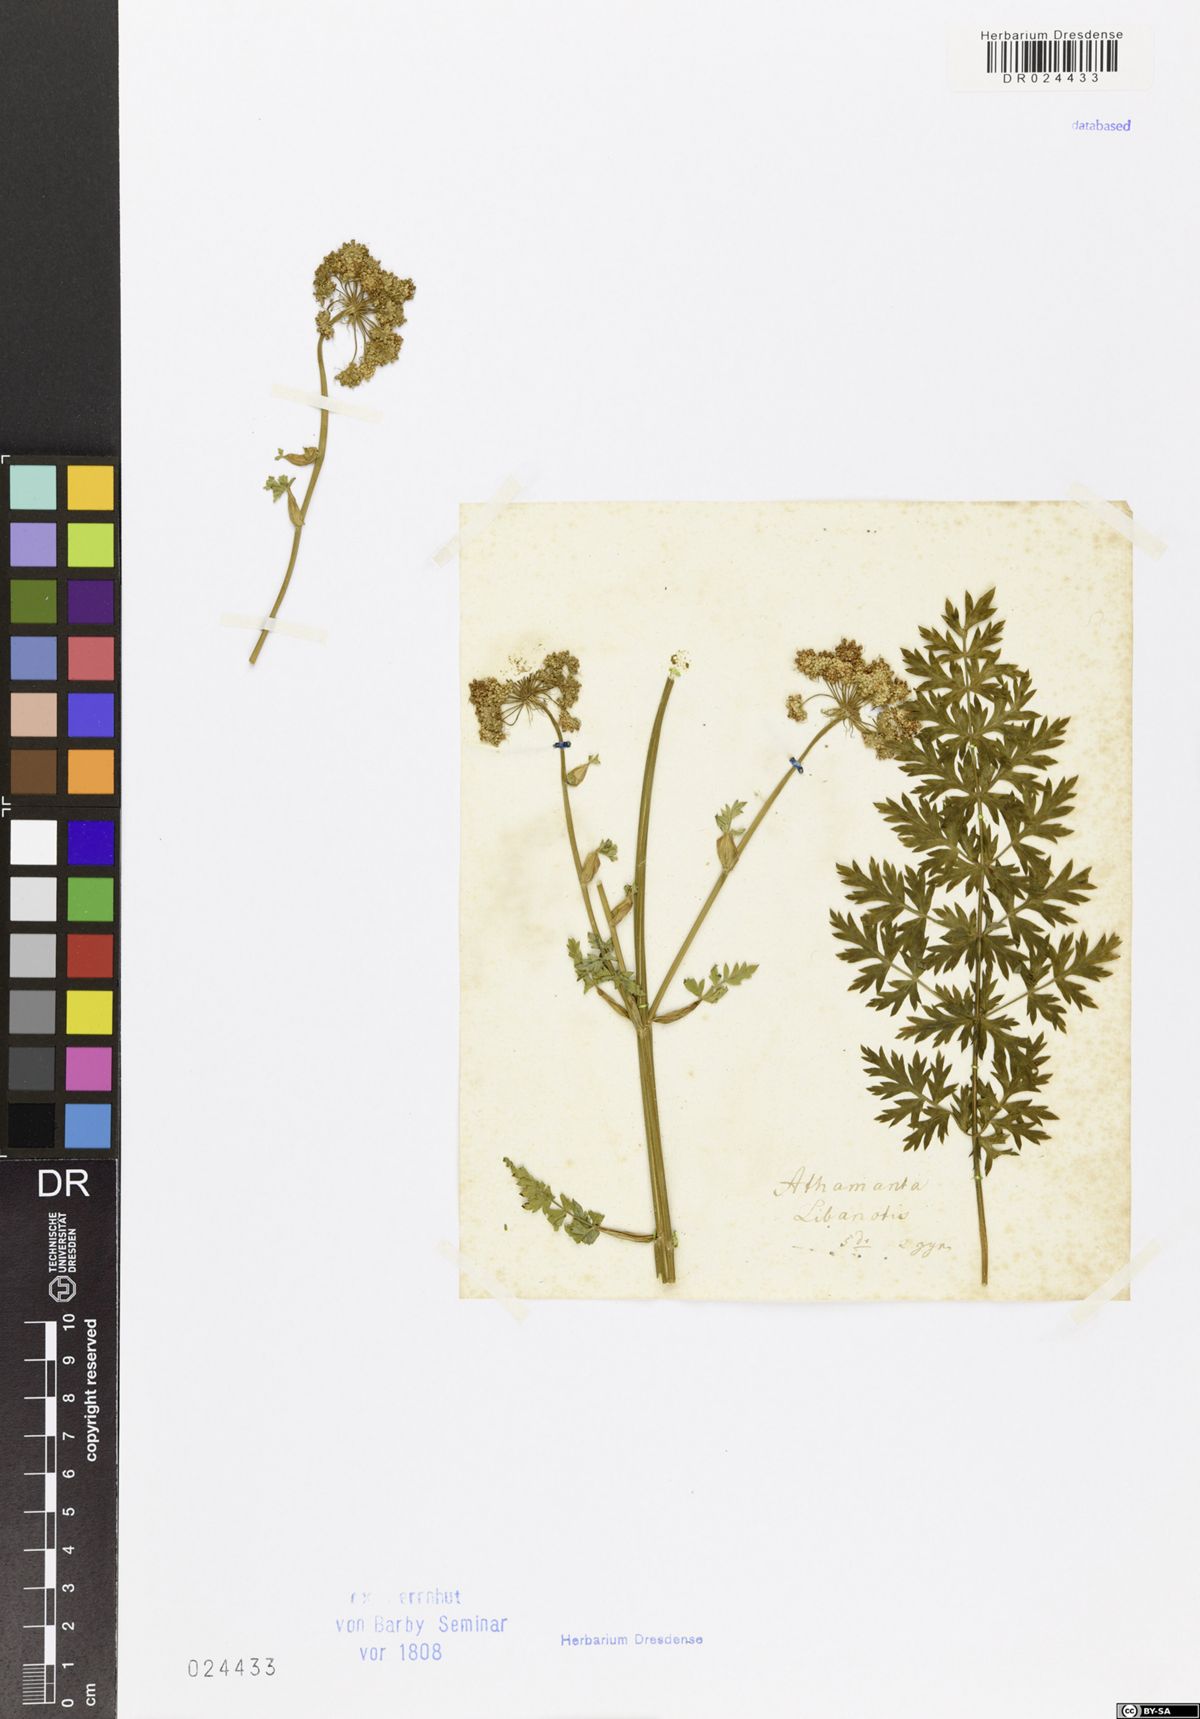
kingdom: Plantae
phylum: Tracheophyta
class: Magnoliopsida
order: Apiales
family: Apiaceae
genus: Seseli
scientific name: Seseli libanotis
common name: Mooncarrot
